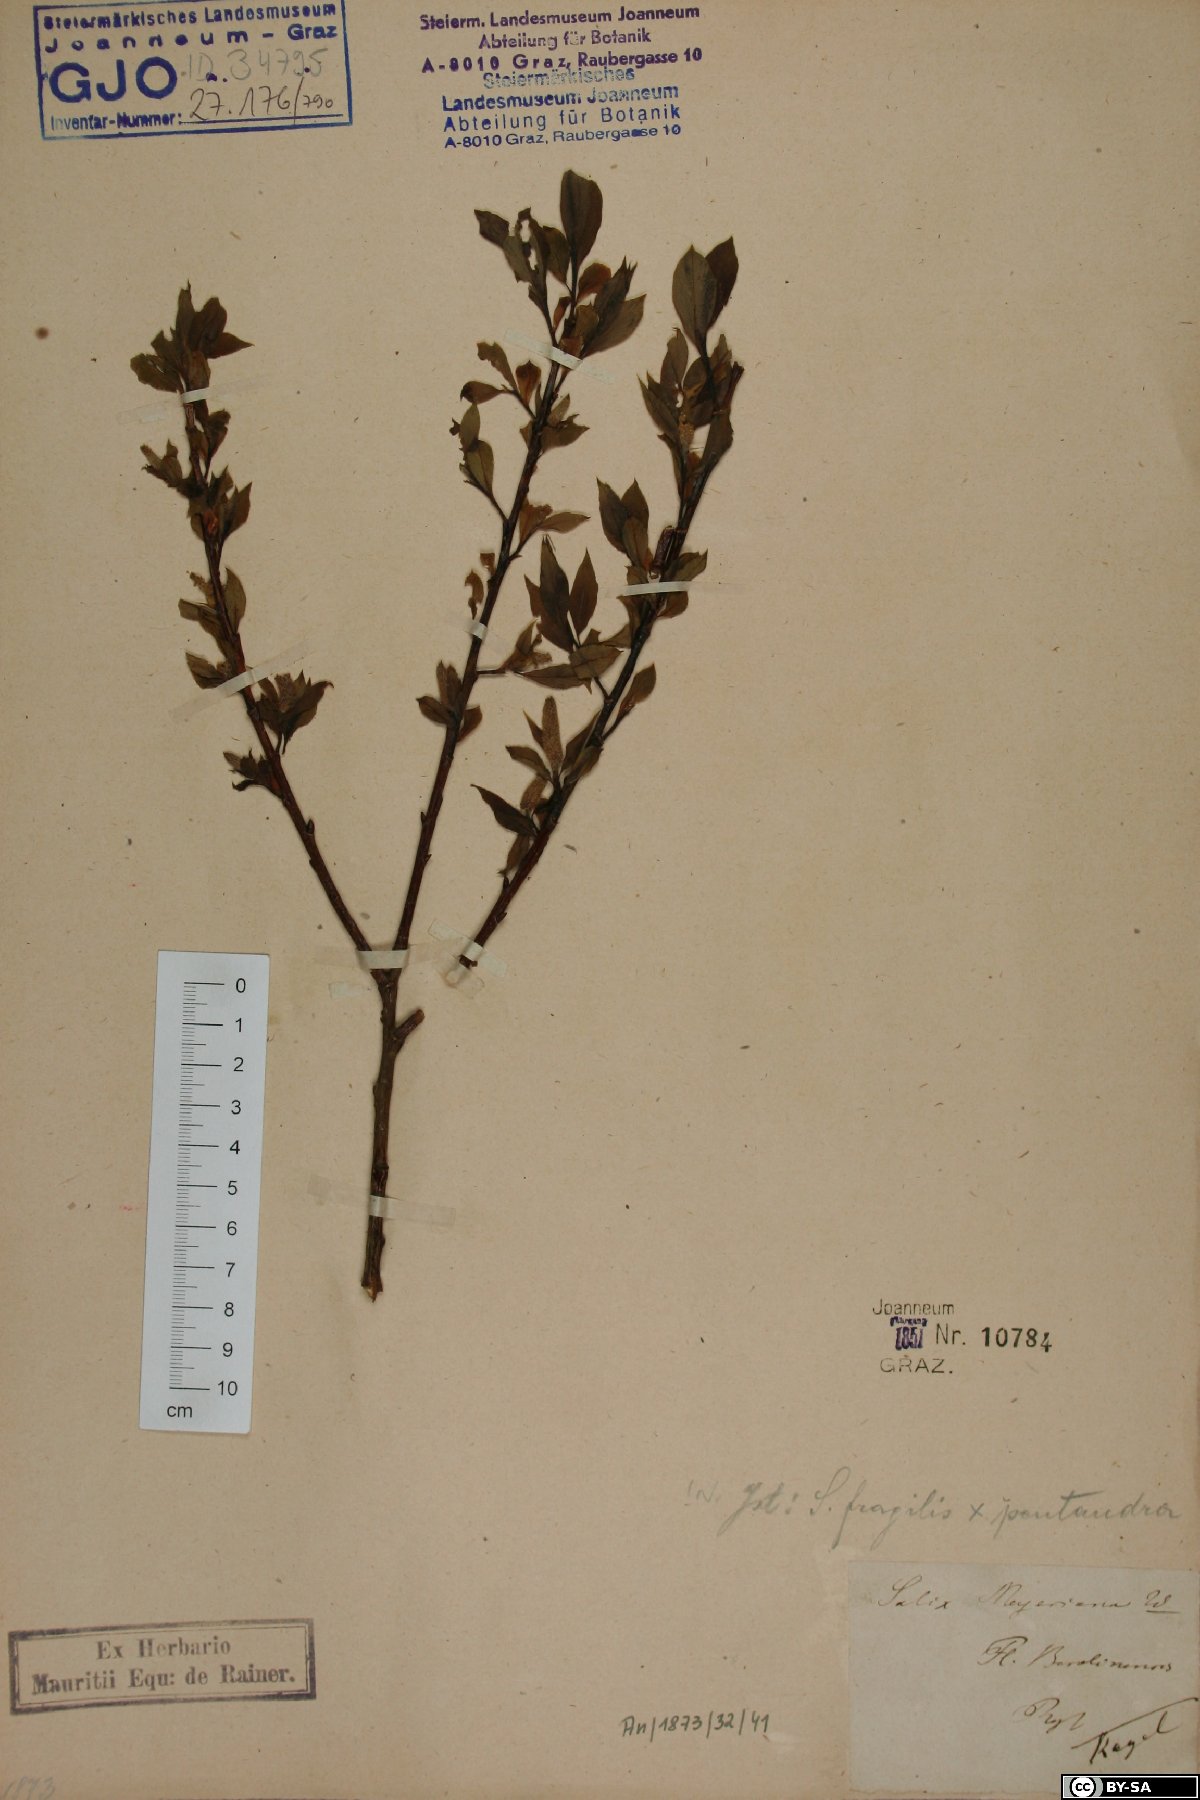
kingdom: Plantae
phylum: Tracheophyta
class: Magnoliopsida
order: Malpighiales
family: Salicaceae
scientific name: Salicaceae
